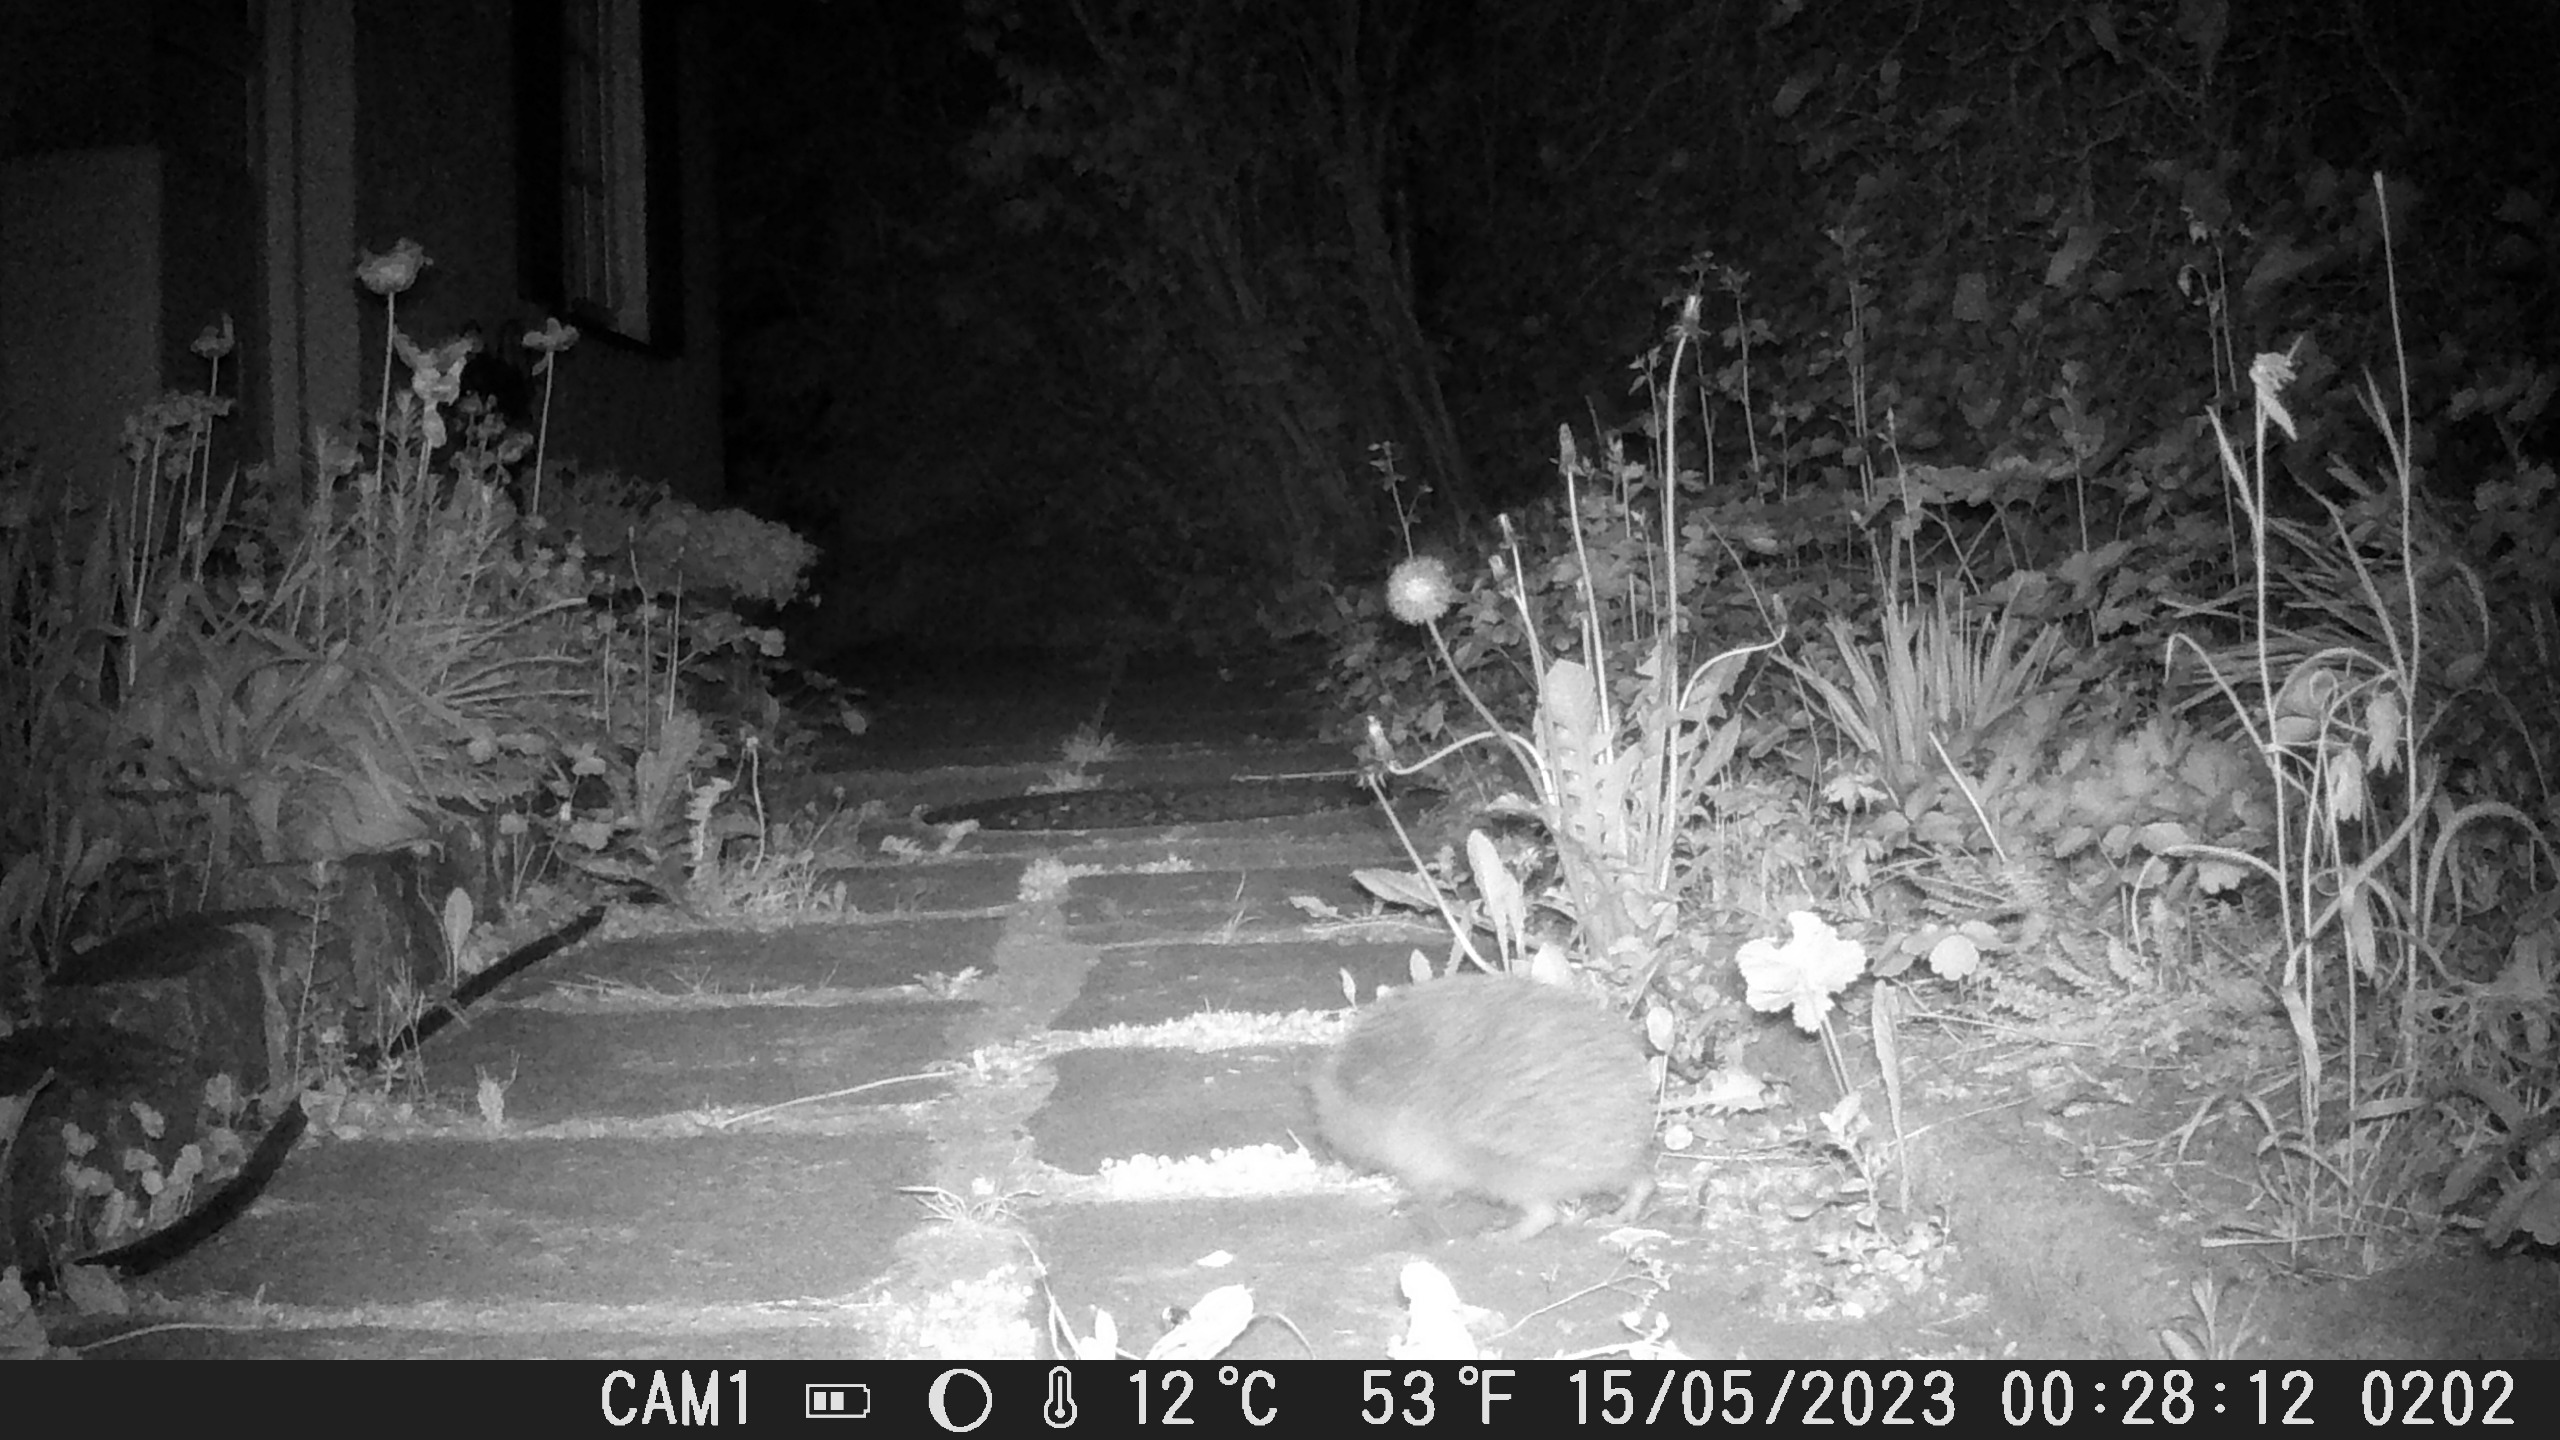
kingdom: Animalia
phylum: Chordata
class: Mammalia
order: Erinaceomorpha
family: Erinaceidae
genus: Erinaceus
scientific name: Erinaceus europaeus
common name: Pindsvin
